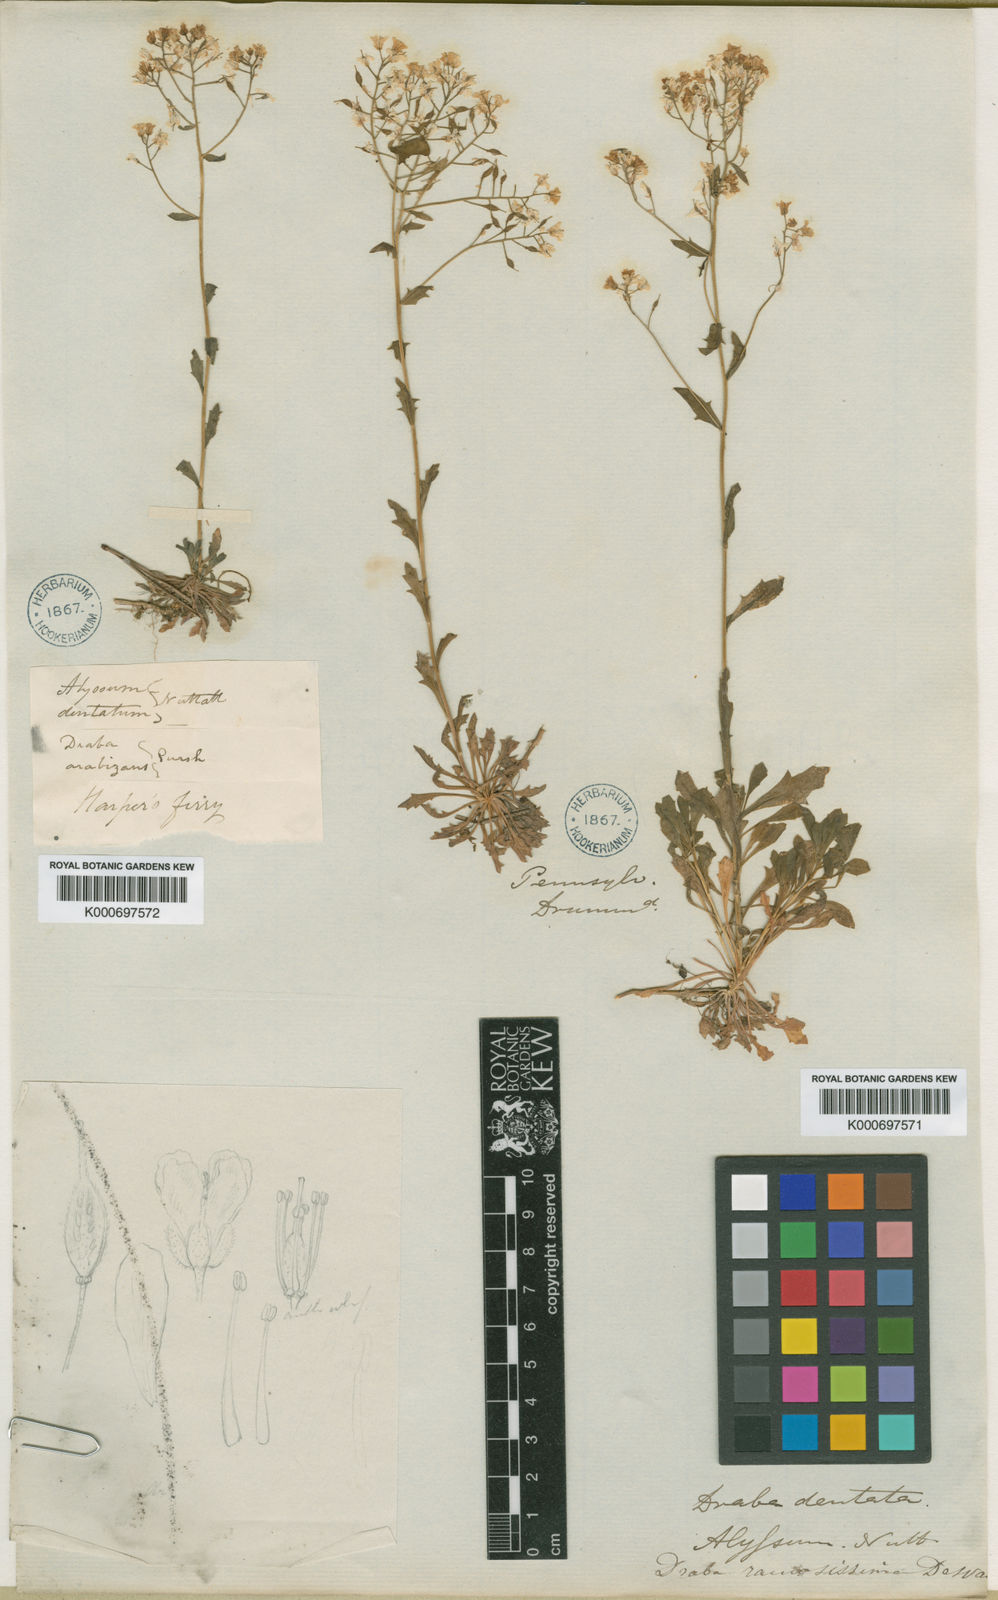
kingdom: Plantae
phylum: Tracheophyta
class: Magnoliopsida
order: Brassicales
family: Brassicaceae
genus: Draba
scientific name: Draba ramosissima
